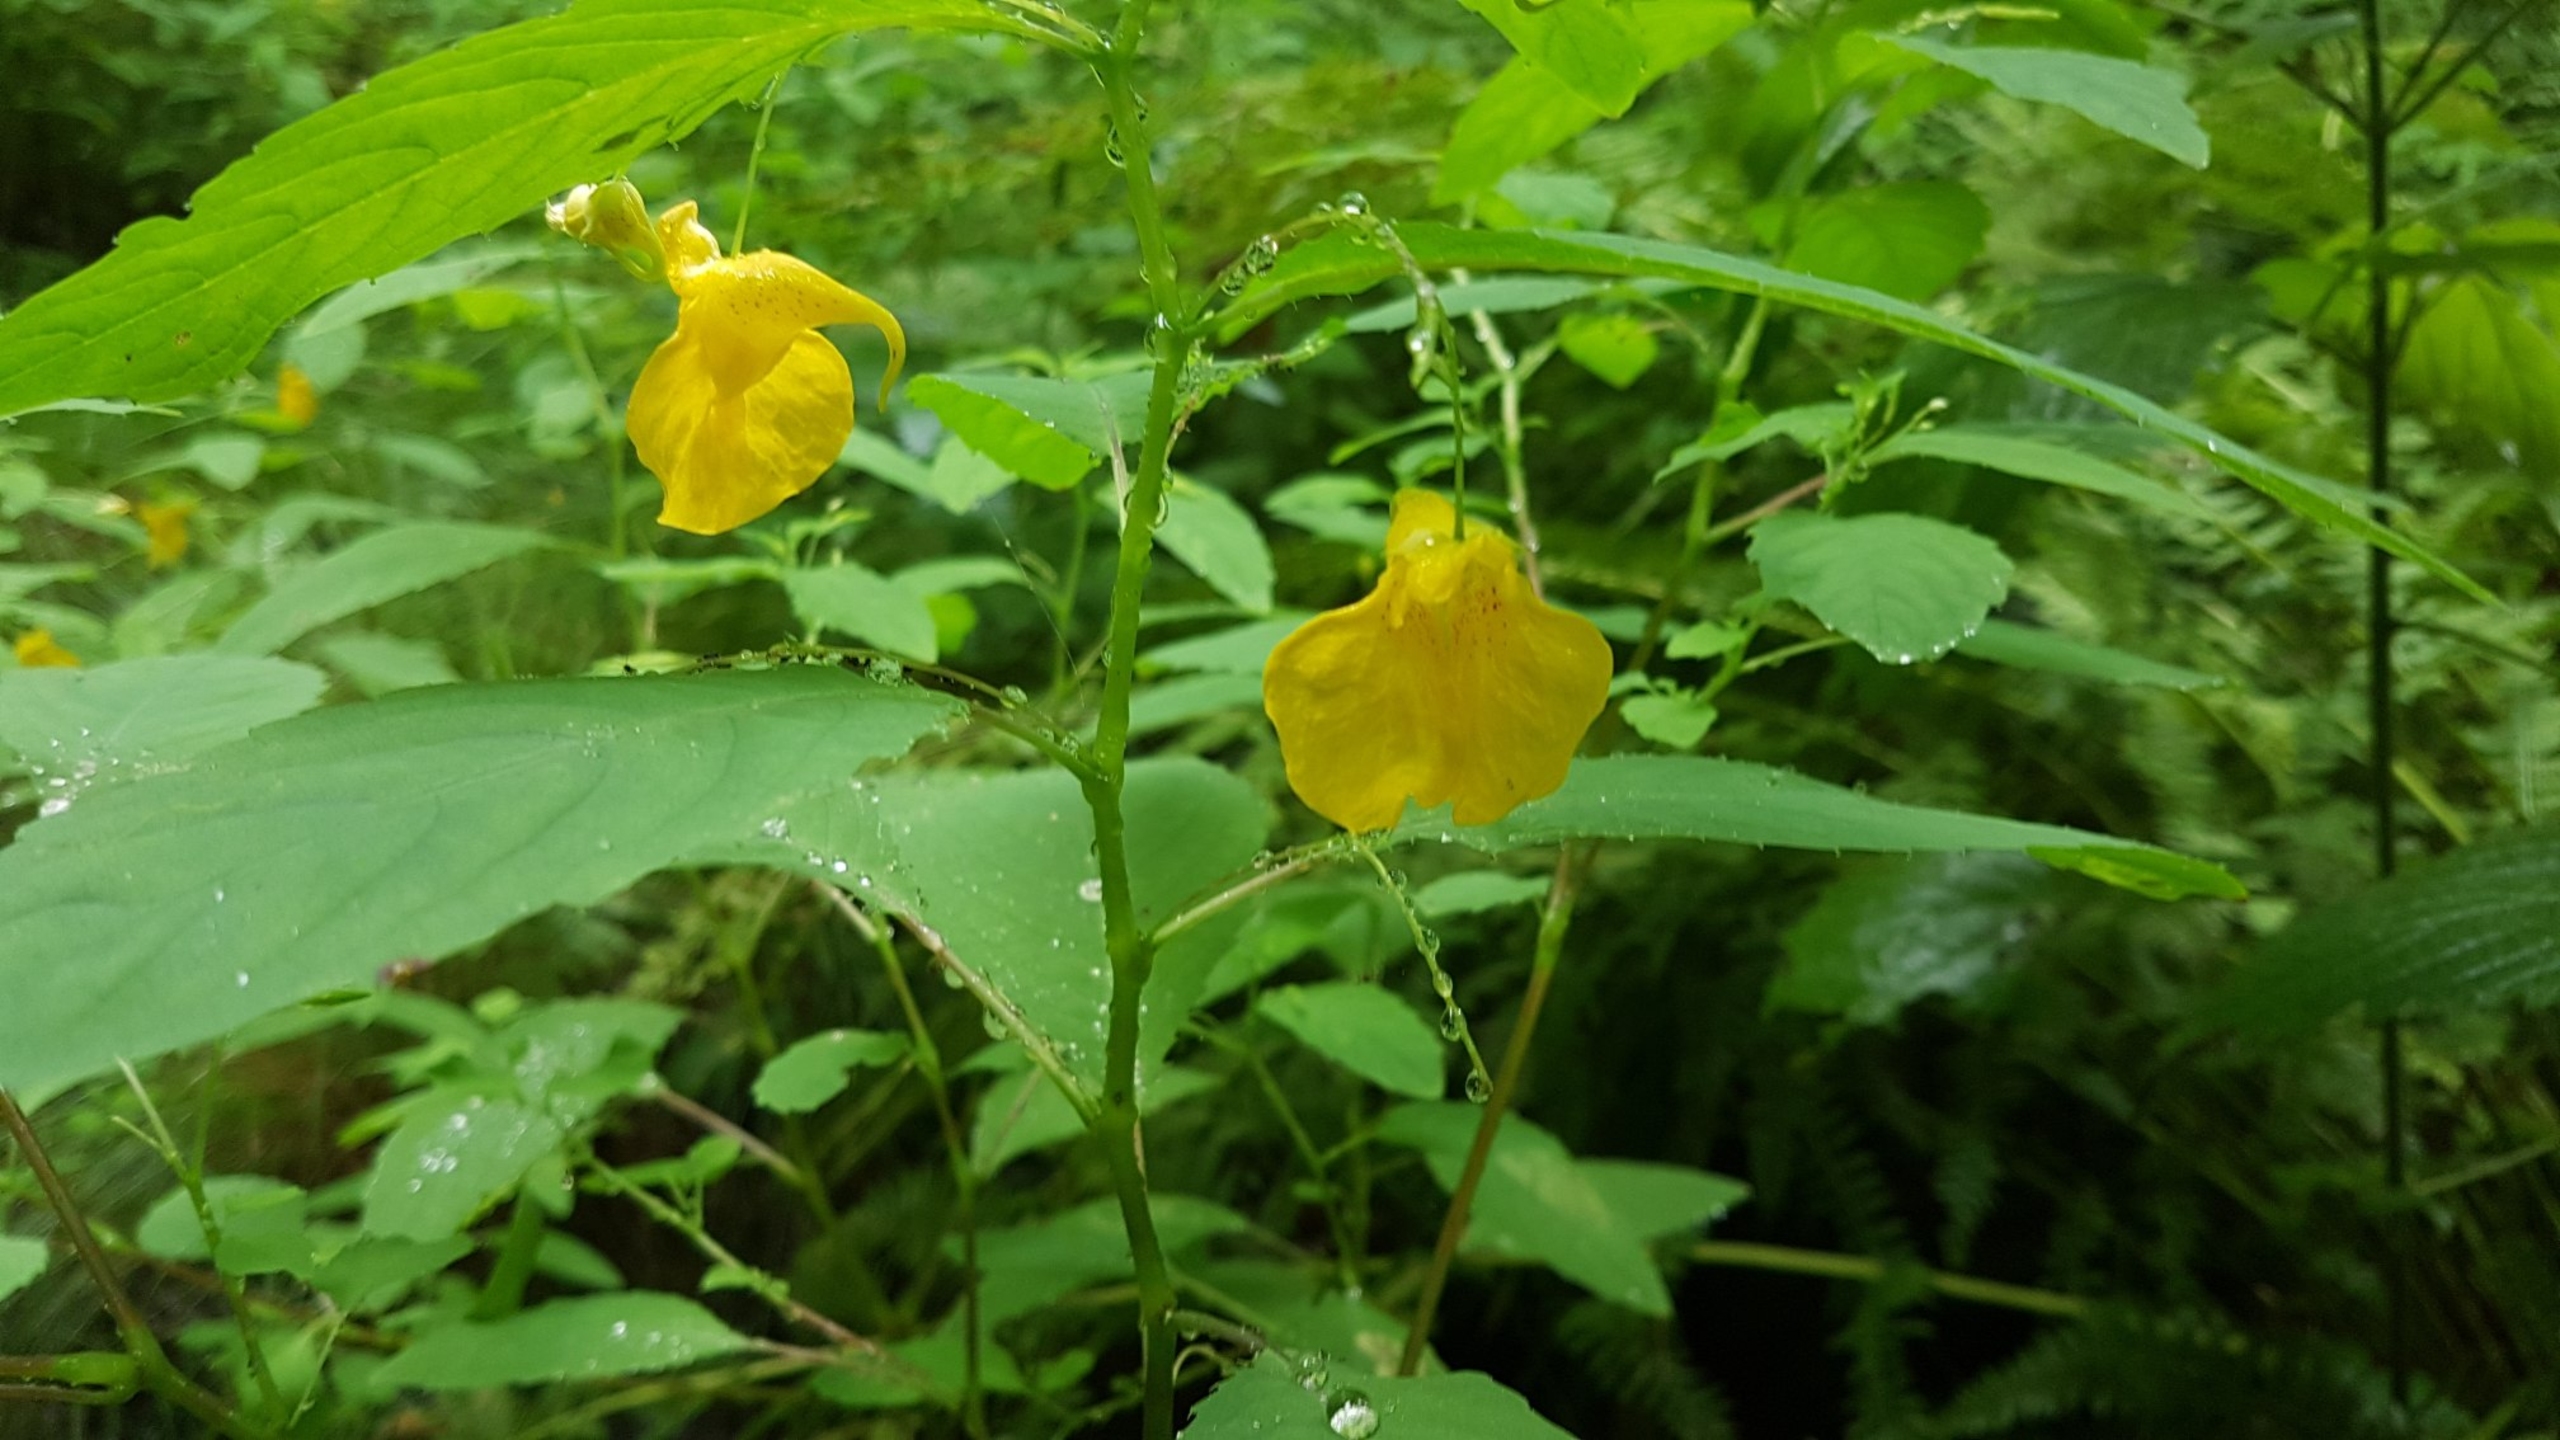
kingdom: Plantae
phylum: Tracheophyta
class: Magnoliopsida
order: Ericales
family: Balsaminaceae
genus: Impatiens
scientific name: Impatiens noli-tangere
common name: Spring-balsamin
